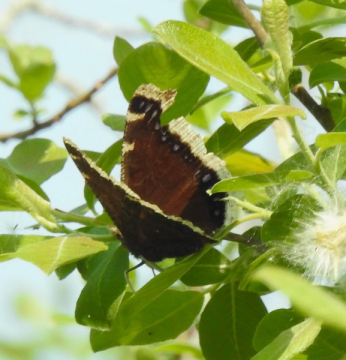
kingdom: Animalia
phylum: Arthropoda
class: Insecta
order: Lepidoptera
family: Nymphalidae
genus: Nymphalis
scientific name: Nymphalis antiopa
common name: Mourning Cloak
